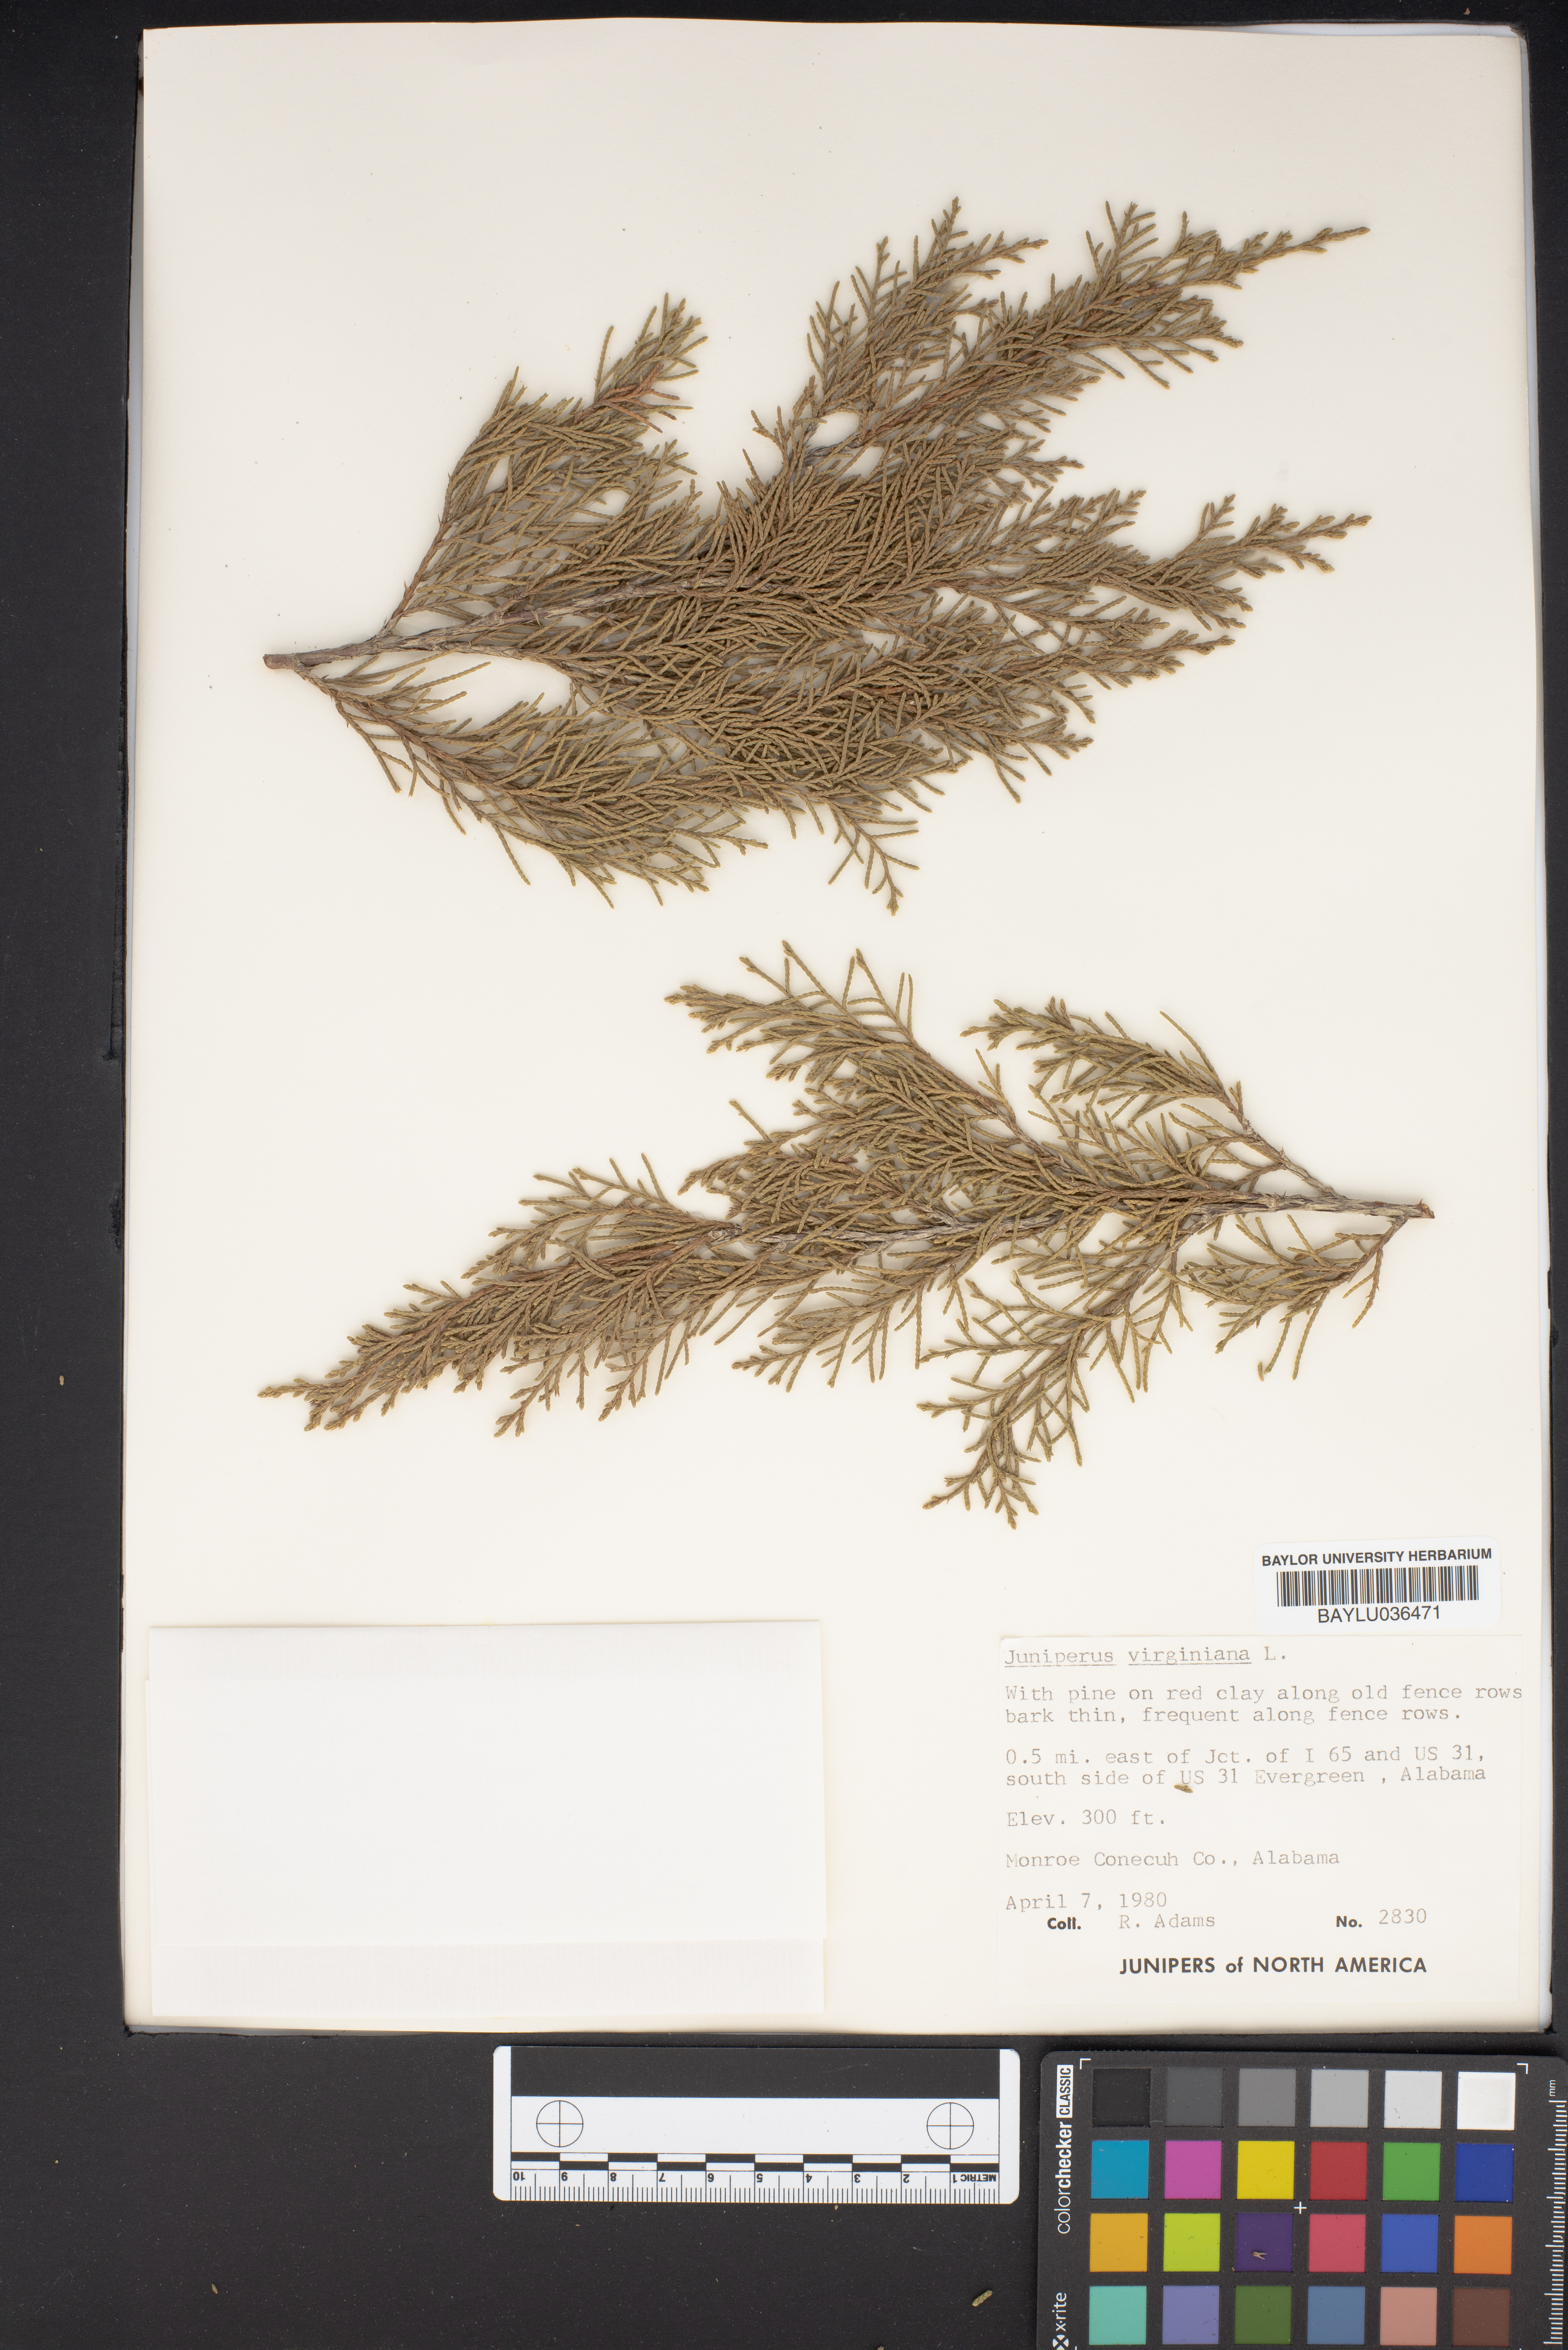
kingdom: Plantae
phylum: Tracheophyta
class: Pinopsida
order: Pinales
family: Cupressaceae
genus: Juniperus
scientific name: Juniperus virginiana
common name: Red juniper
